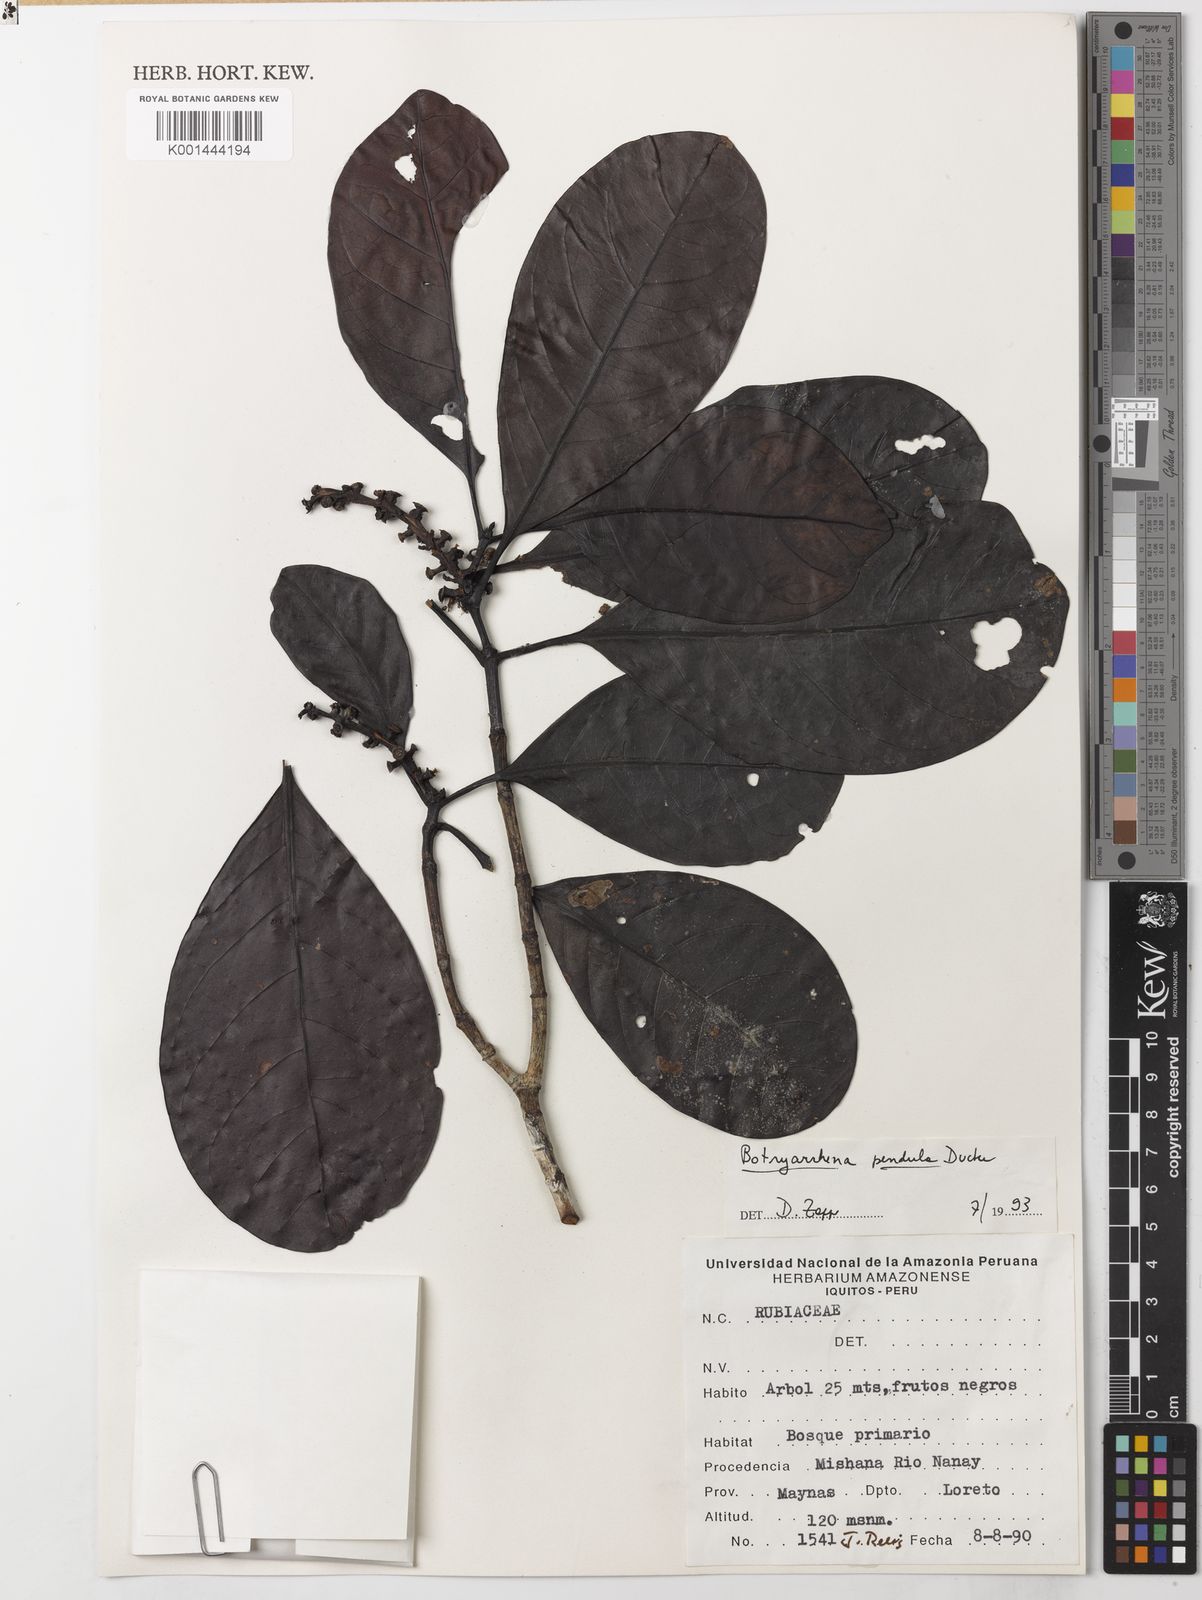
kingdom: Plantae
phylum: Tracheophyta
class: Magnoliopsida
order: Gentianales
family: Rubiaceae
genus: Botryarrhena
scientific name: Botryarrhena pendula
